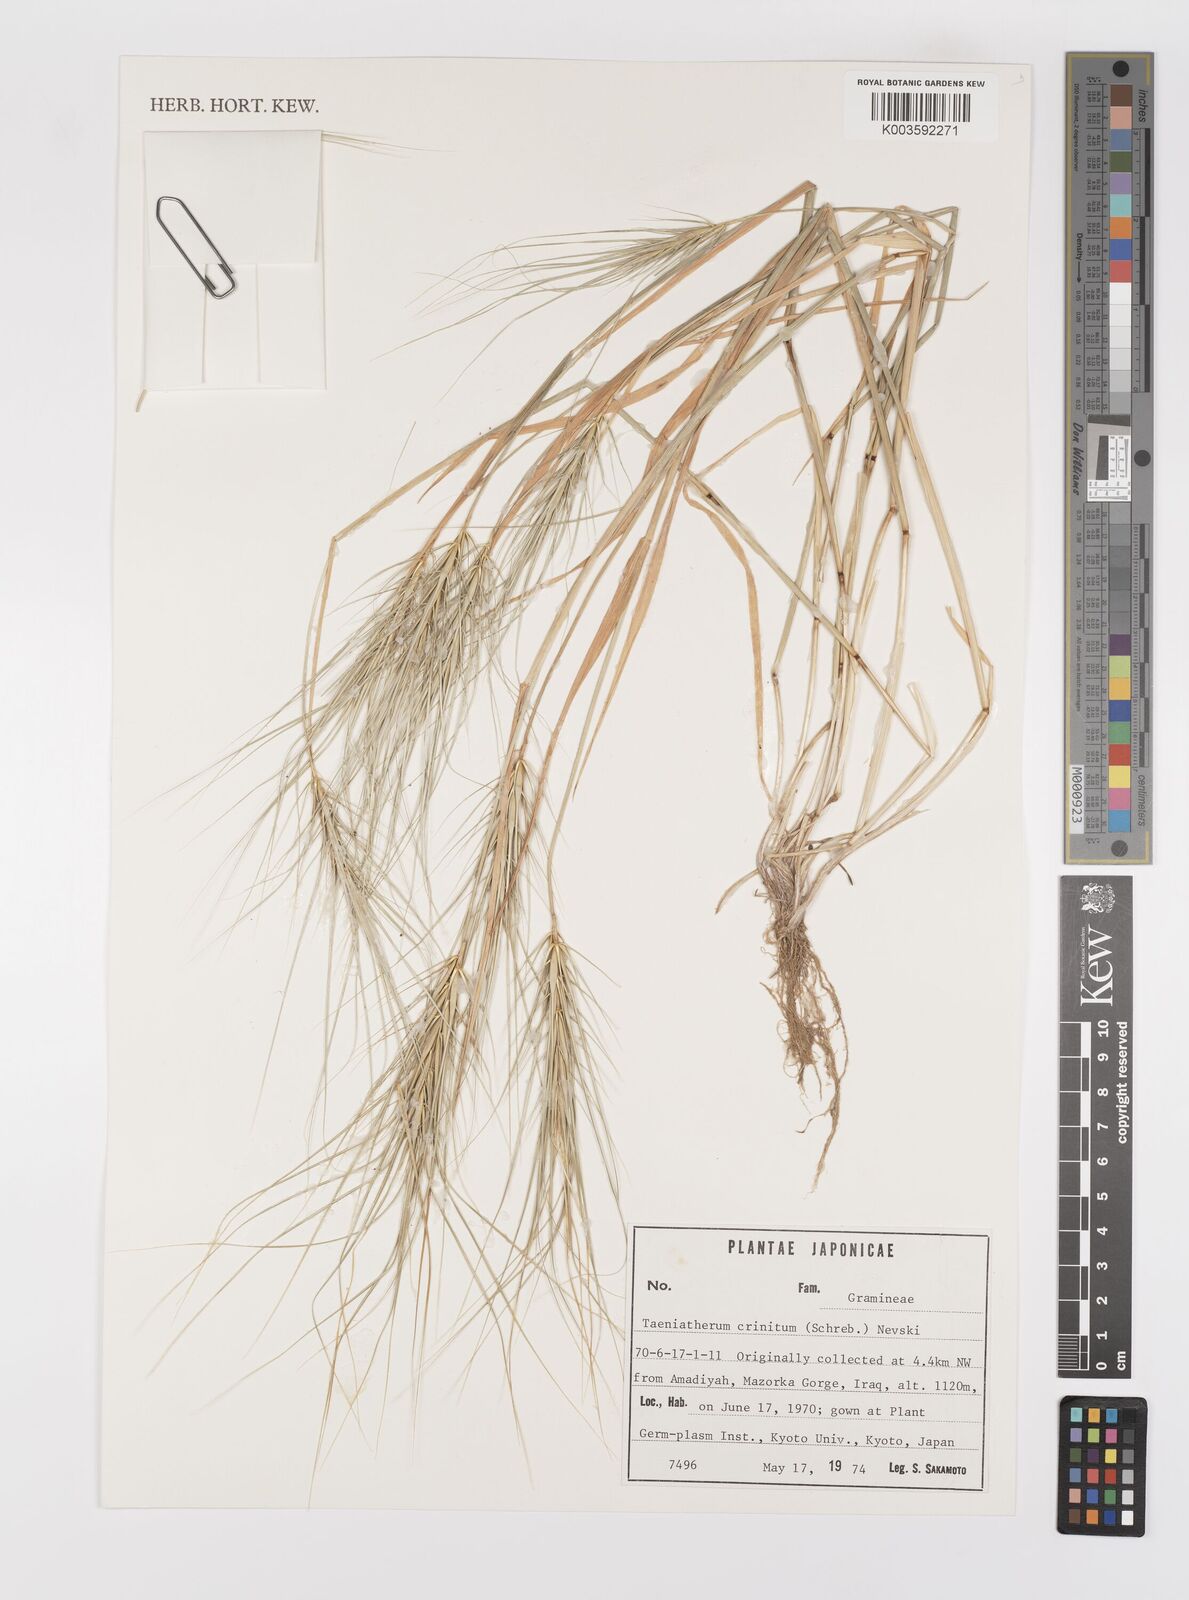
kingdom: Plantae
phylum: Tracheophyta
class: Liliopsida
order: Poales
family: Poaceae
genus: Taeniatherum
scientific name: Taeniatherum caput-medusae
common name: Medusahead
